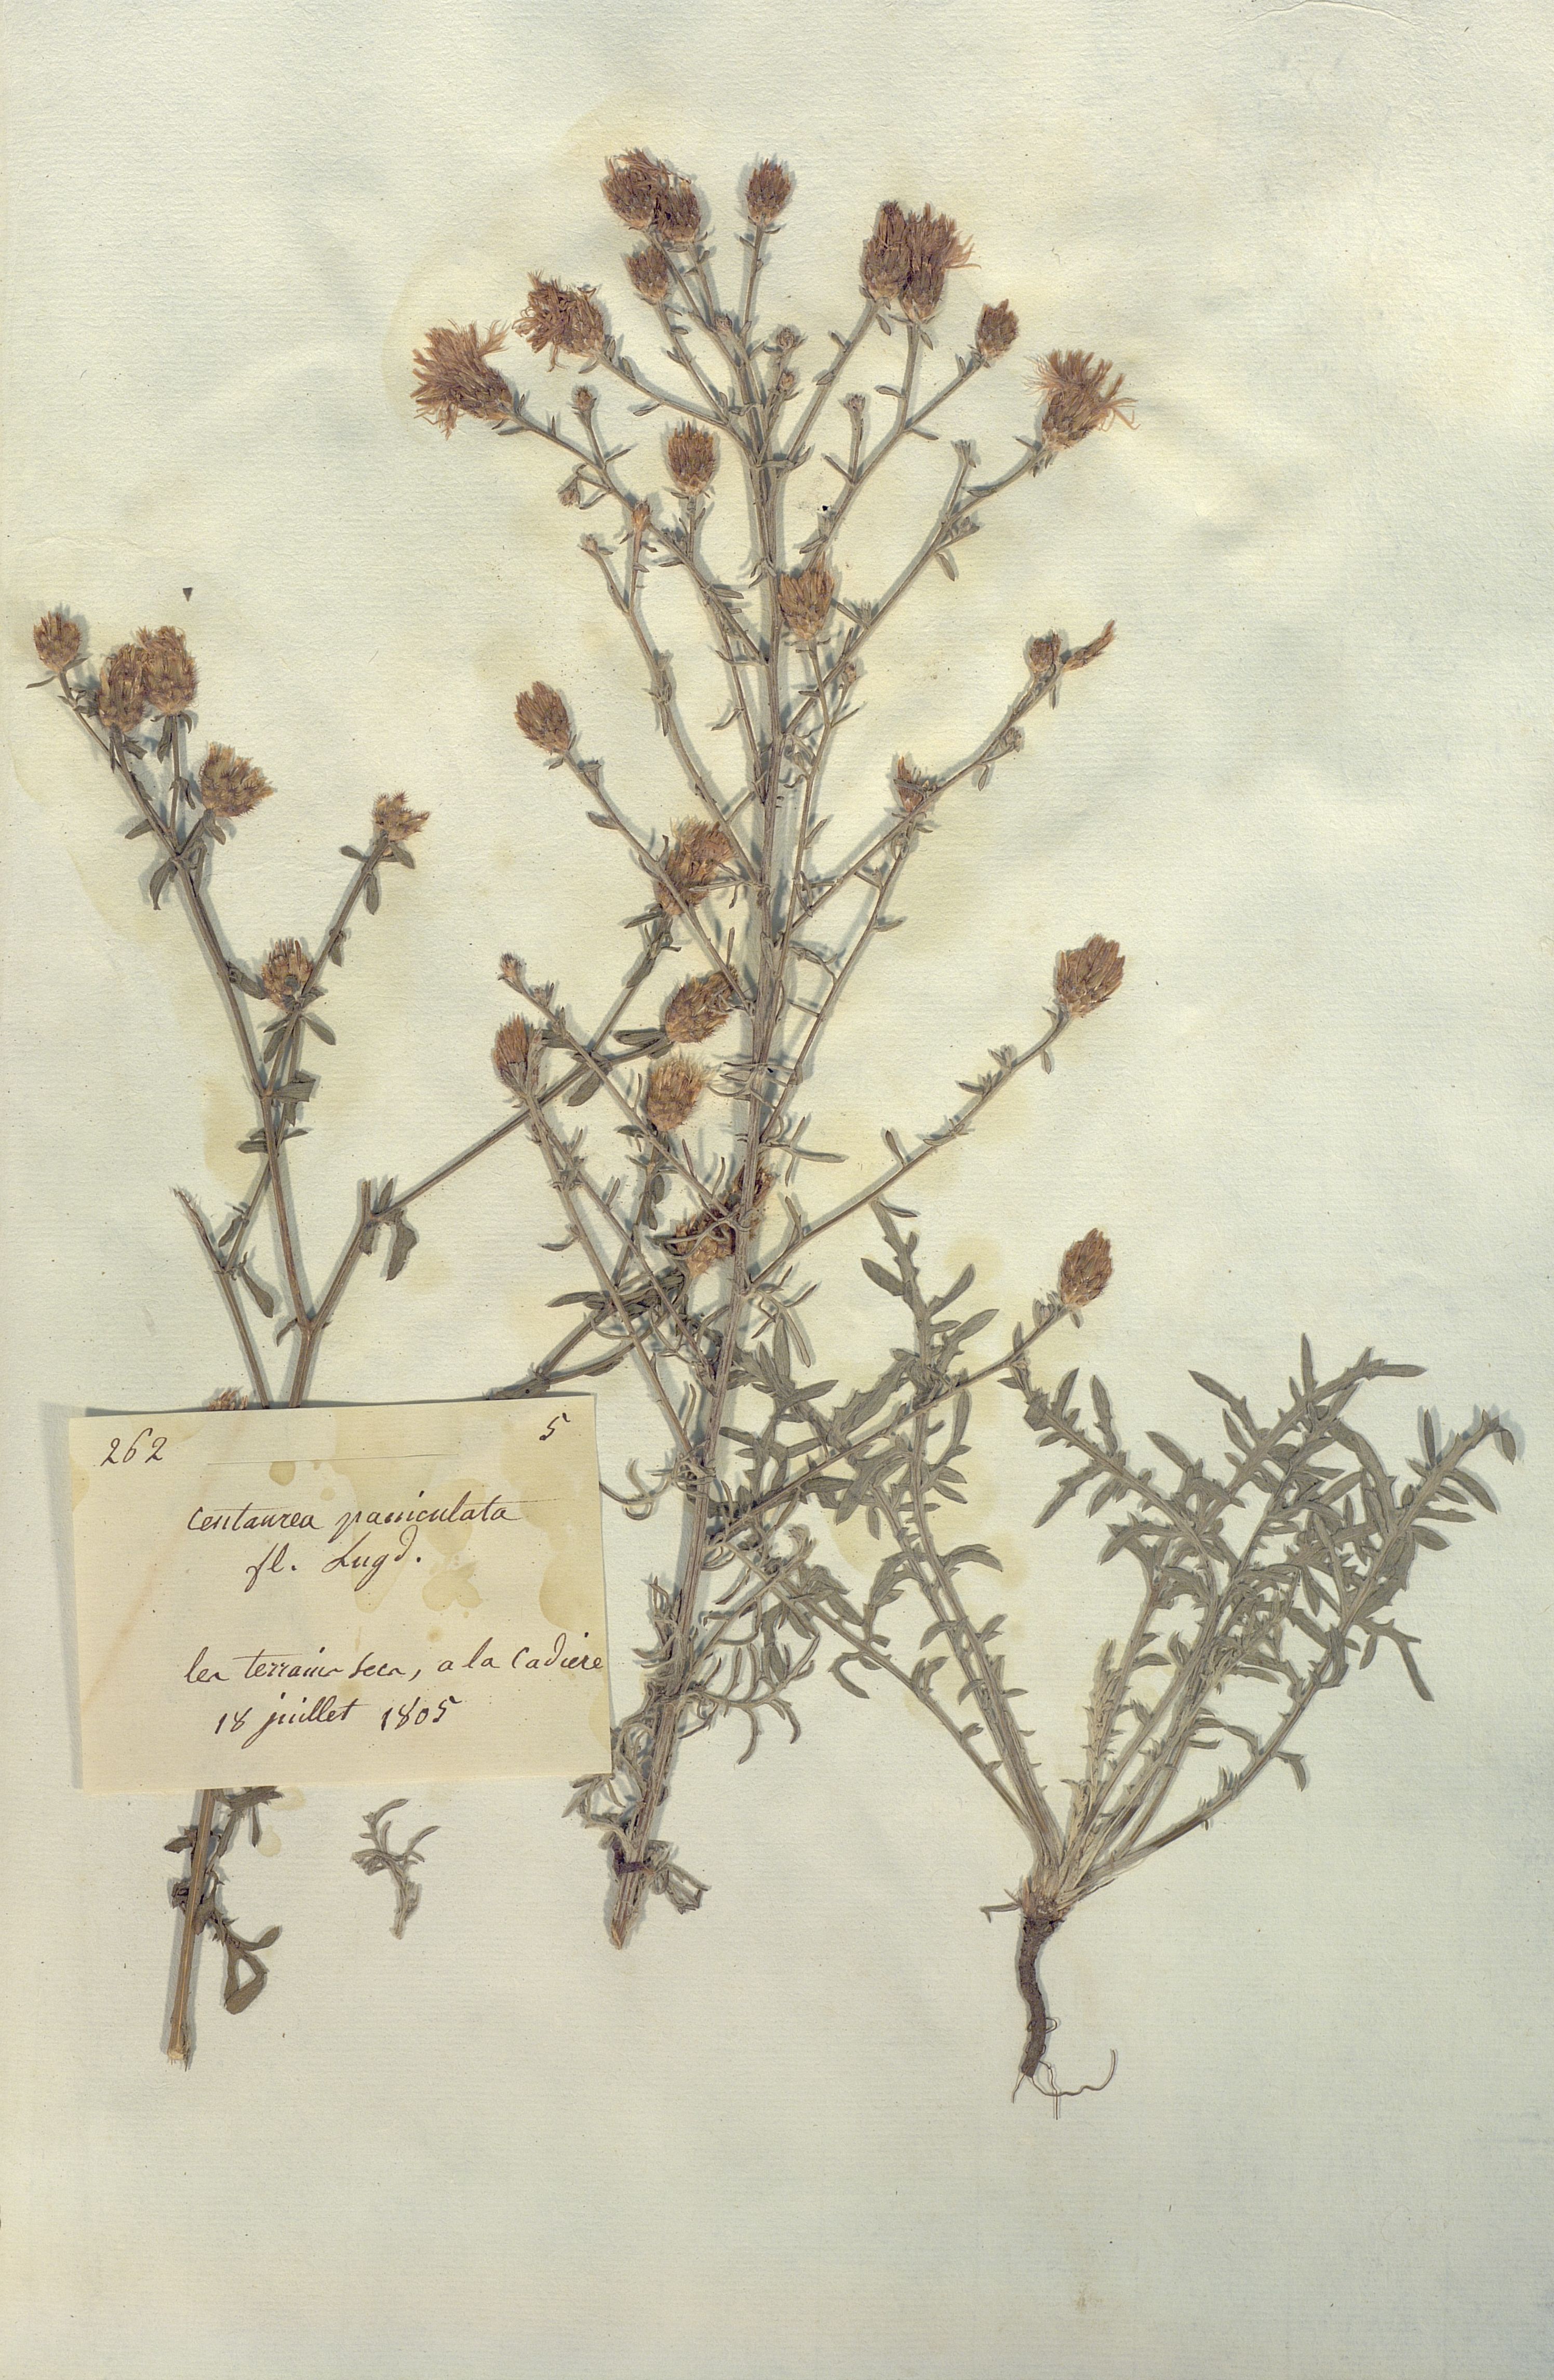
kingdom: Plantae
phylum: Tracheophyta
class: Magnoliopsida
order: Asterales
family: Asteraceae
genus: Centaurea
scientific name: Centaurea paniculata
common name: Jersey knapweed
